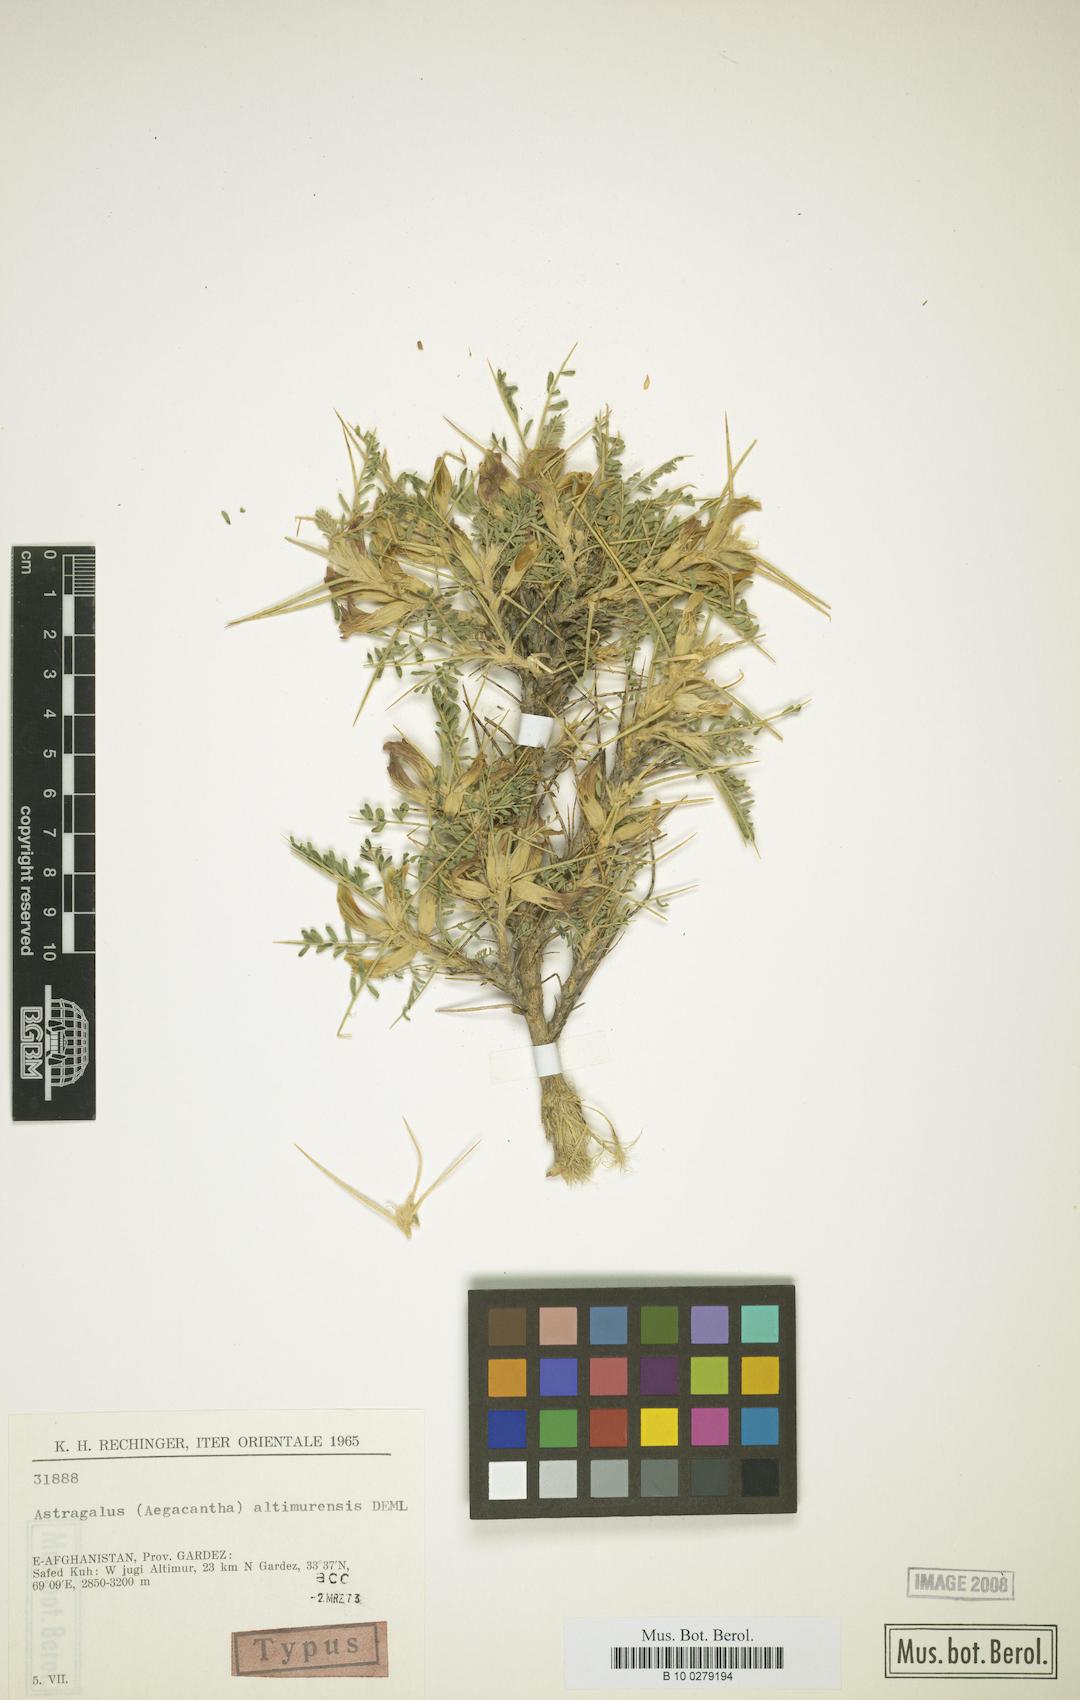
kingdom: Plantae
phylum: Tracheophyta
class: Magnoliopsida
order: Fabales
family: Fabaceae
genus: Astragalus
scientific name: Astragalus altimurensis
